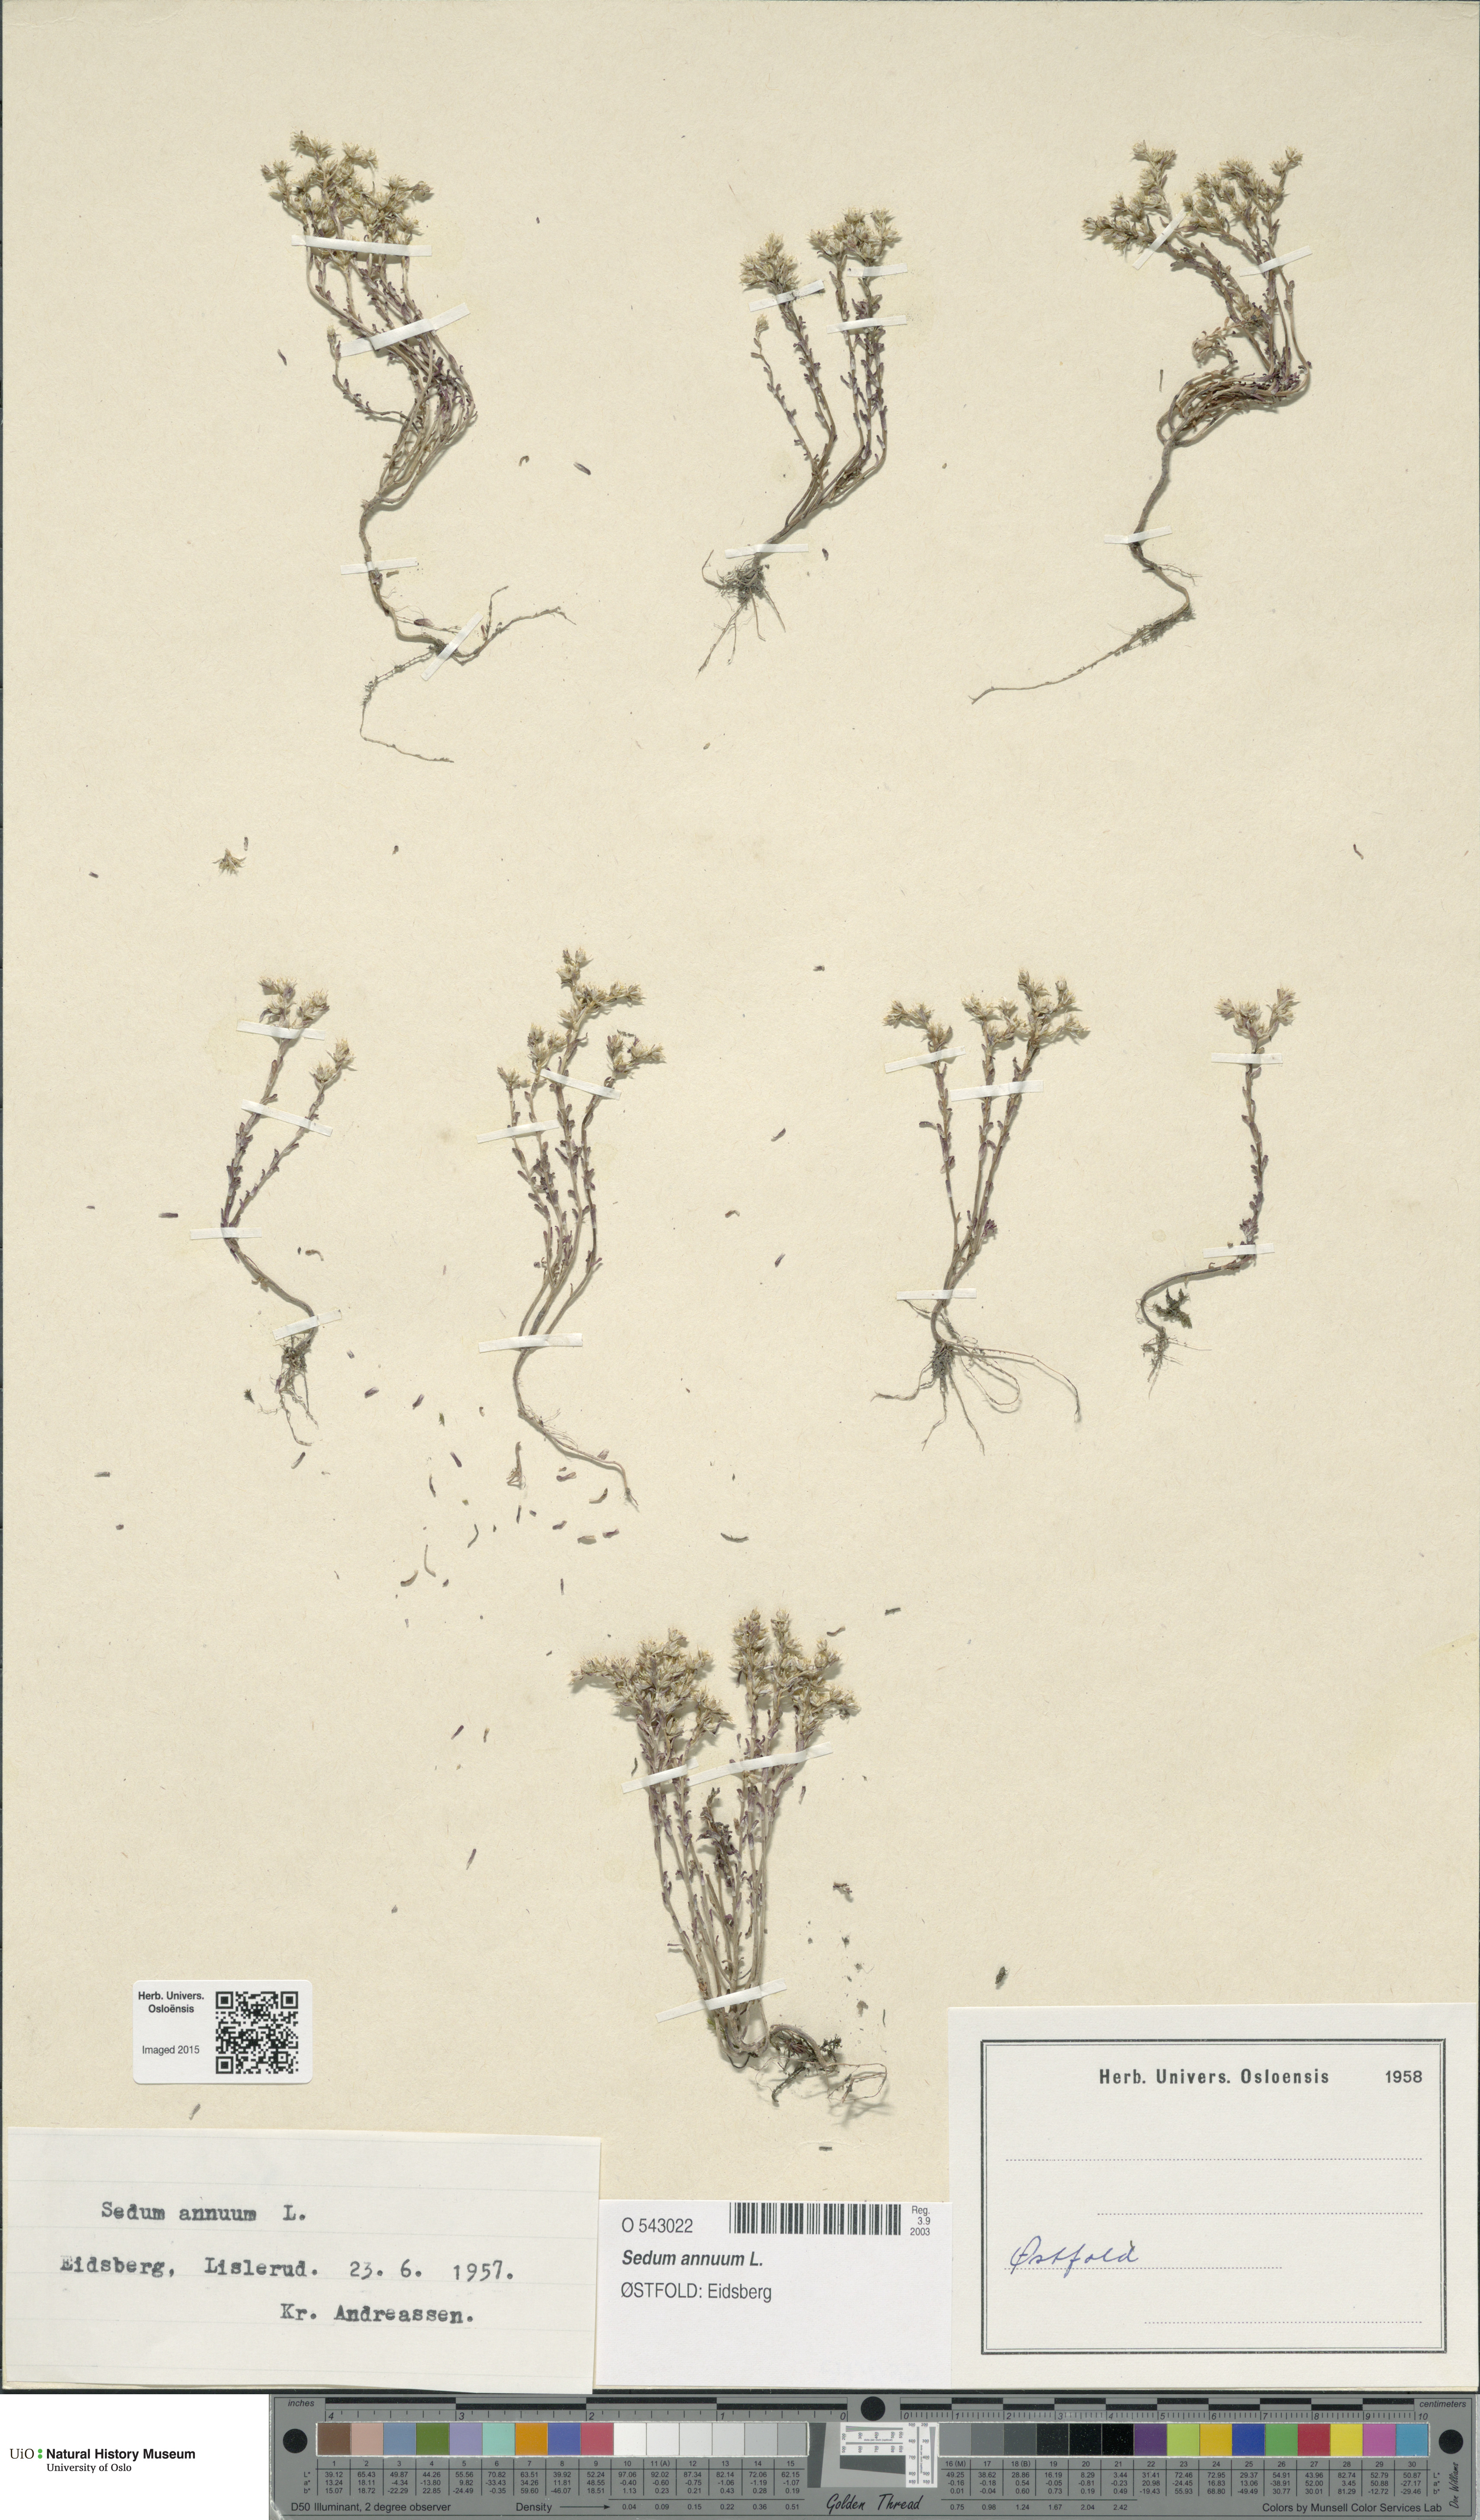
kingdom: Plantae
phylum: Tracheophyta
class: Magnoliopsida
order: Saxifragales
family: Crassulaceae
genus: Sedum
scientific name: Sedum annuum
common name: Annual stonecrop
